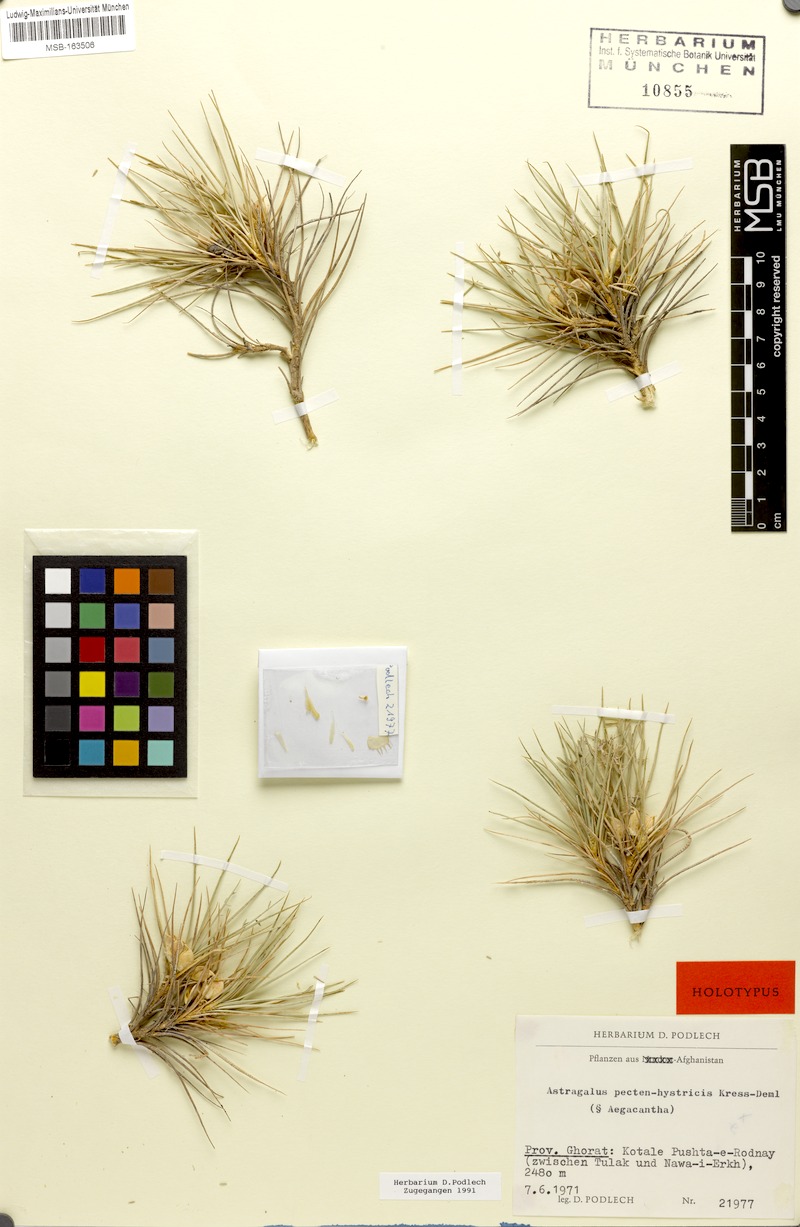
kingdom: Plantae
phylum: Tracheophyta
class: Magnoliopsida
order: Fabales
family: Fabaceae
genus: Astragalus
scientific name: Astragalus pecten-hystricis
